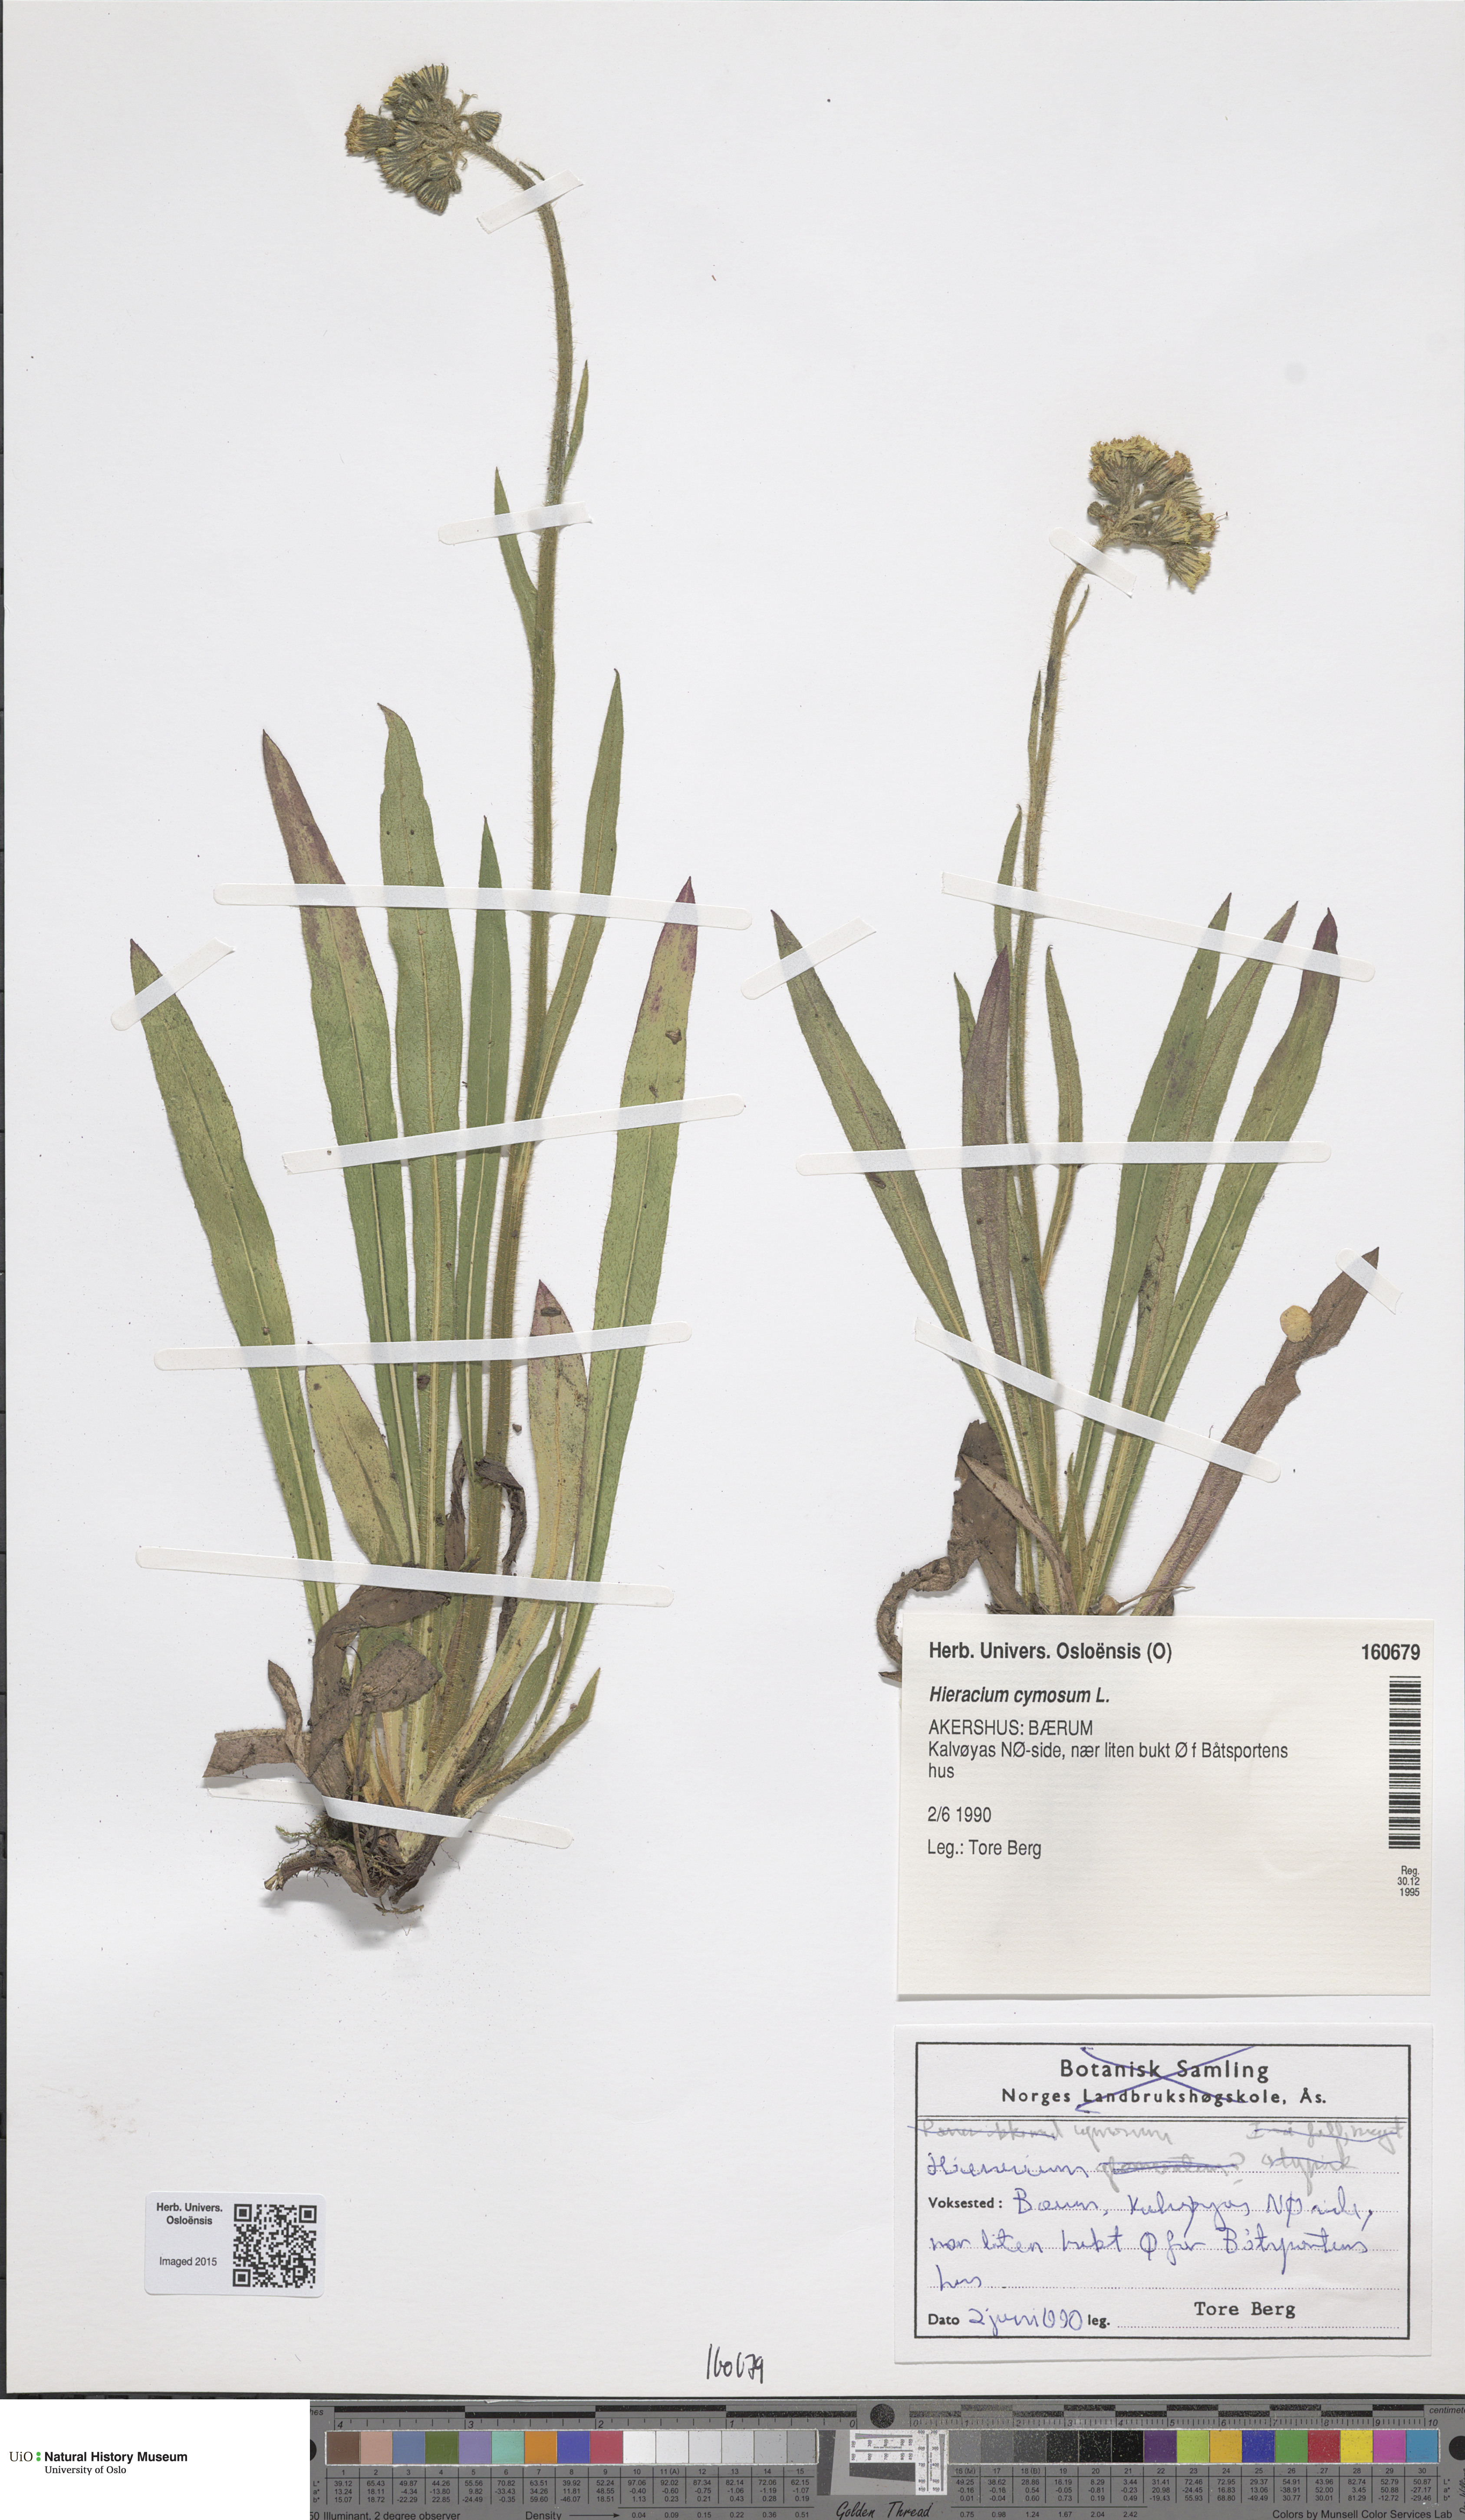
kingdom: Plantae
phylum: Tracheophyta
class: Magnoliopsida
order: Asterales
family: Asteraceae
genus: Pilosella
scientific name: Pilosella dubia
